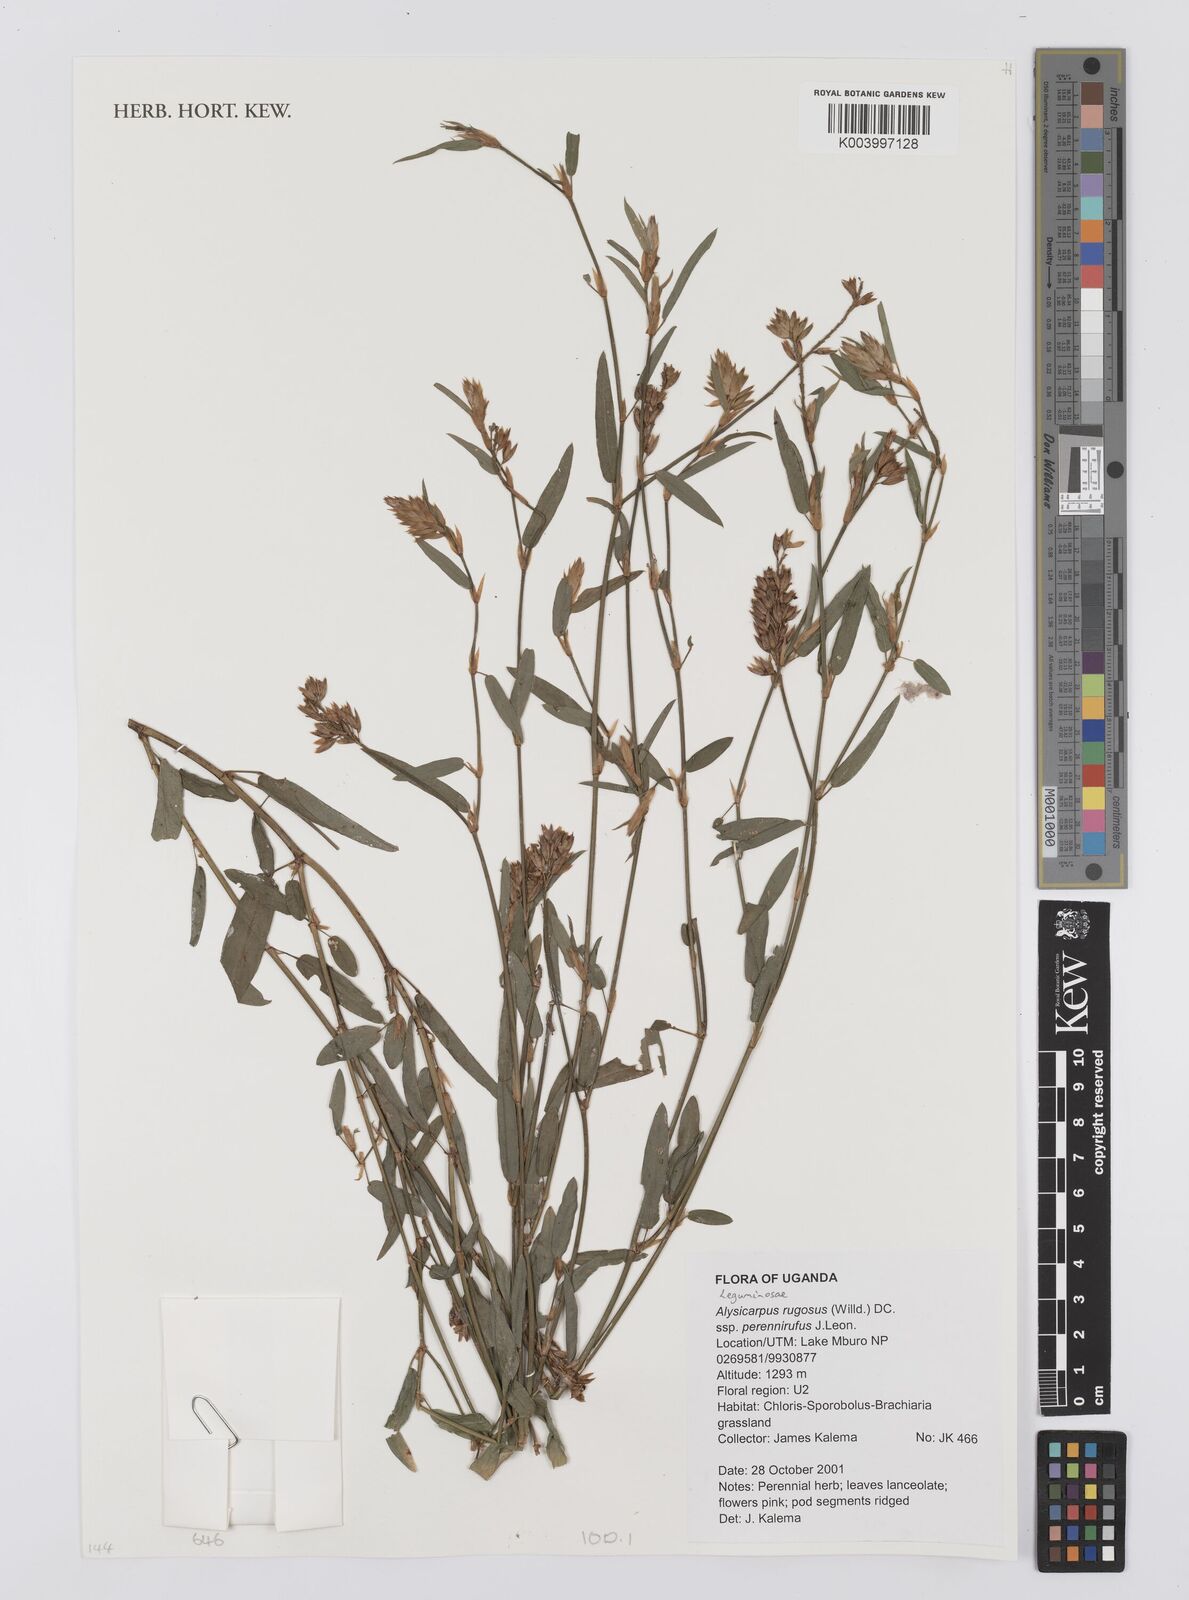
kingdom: Plantae
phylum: Tracheophyta
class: Magnoliopsida
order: Fabales
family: Fabaceae
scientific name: Fabaceae
